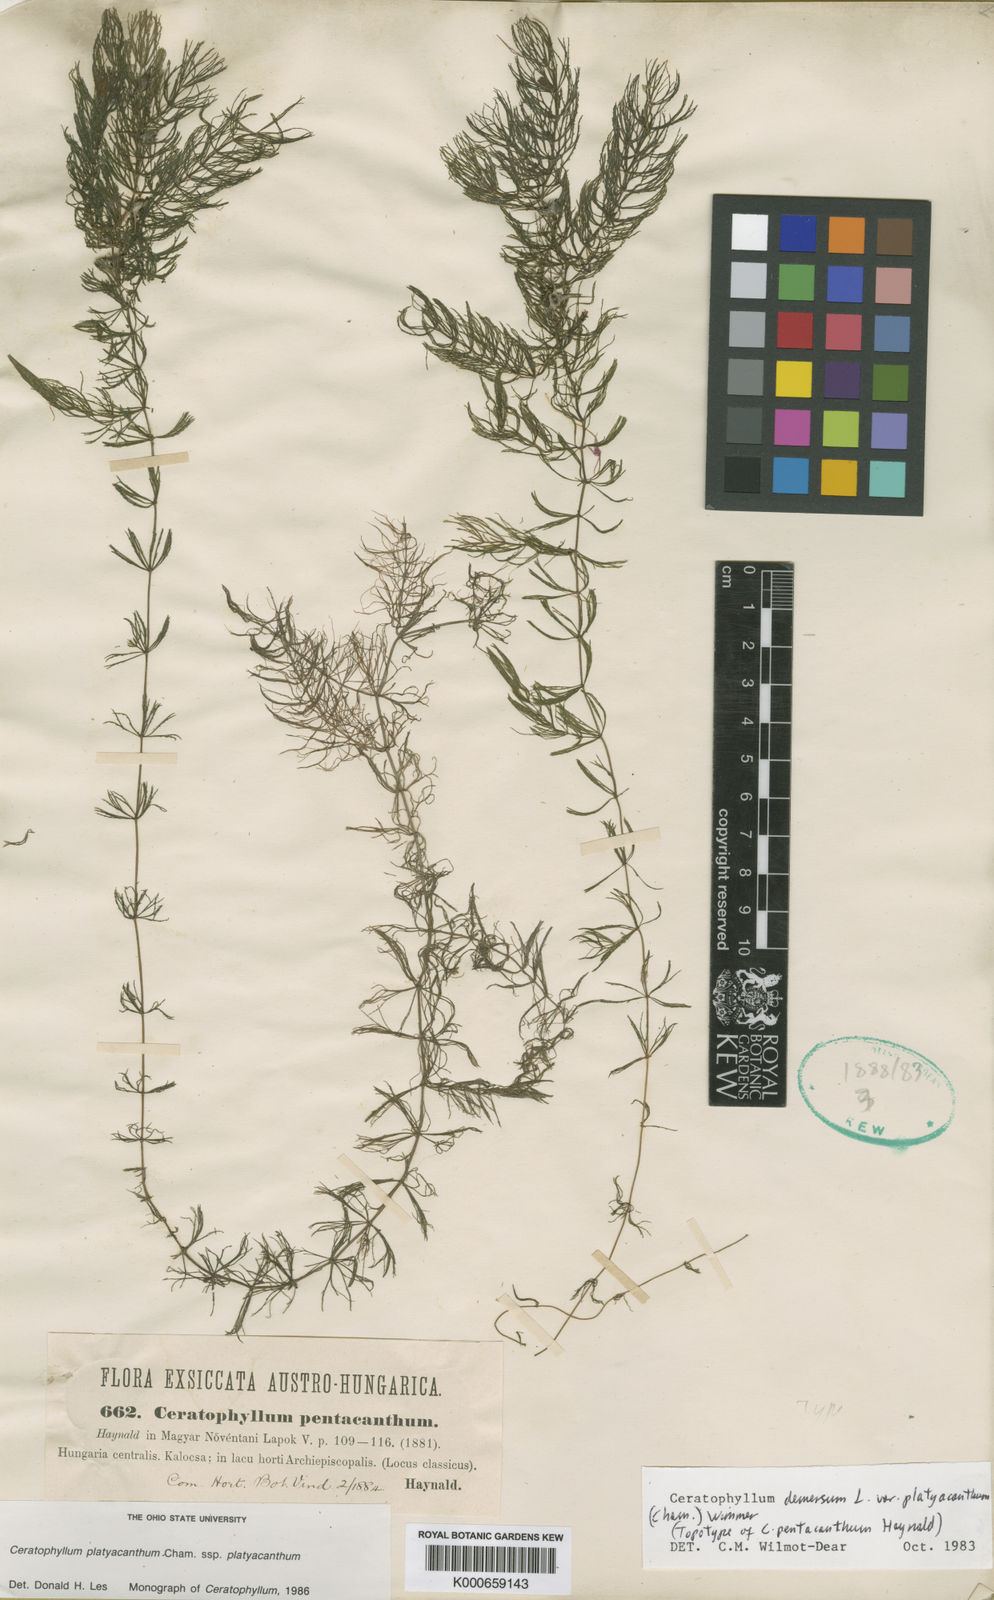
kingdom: Plantae
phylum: Tracheophyta
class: Magnoliopsida
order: Ceratophyllales
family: Ceratophyllaceae
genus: Ceratophyllum
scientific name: Ceratophyllum demersum
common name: Rigid hornwort
